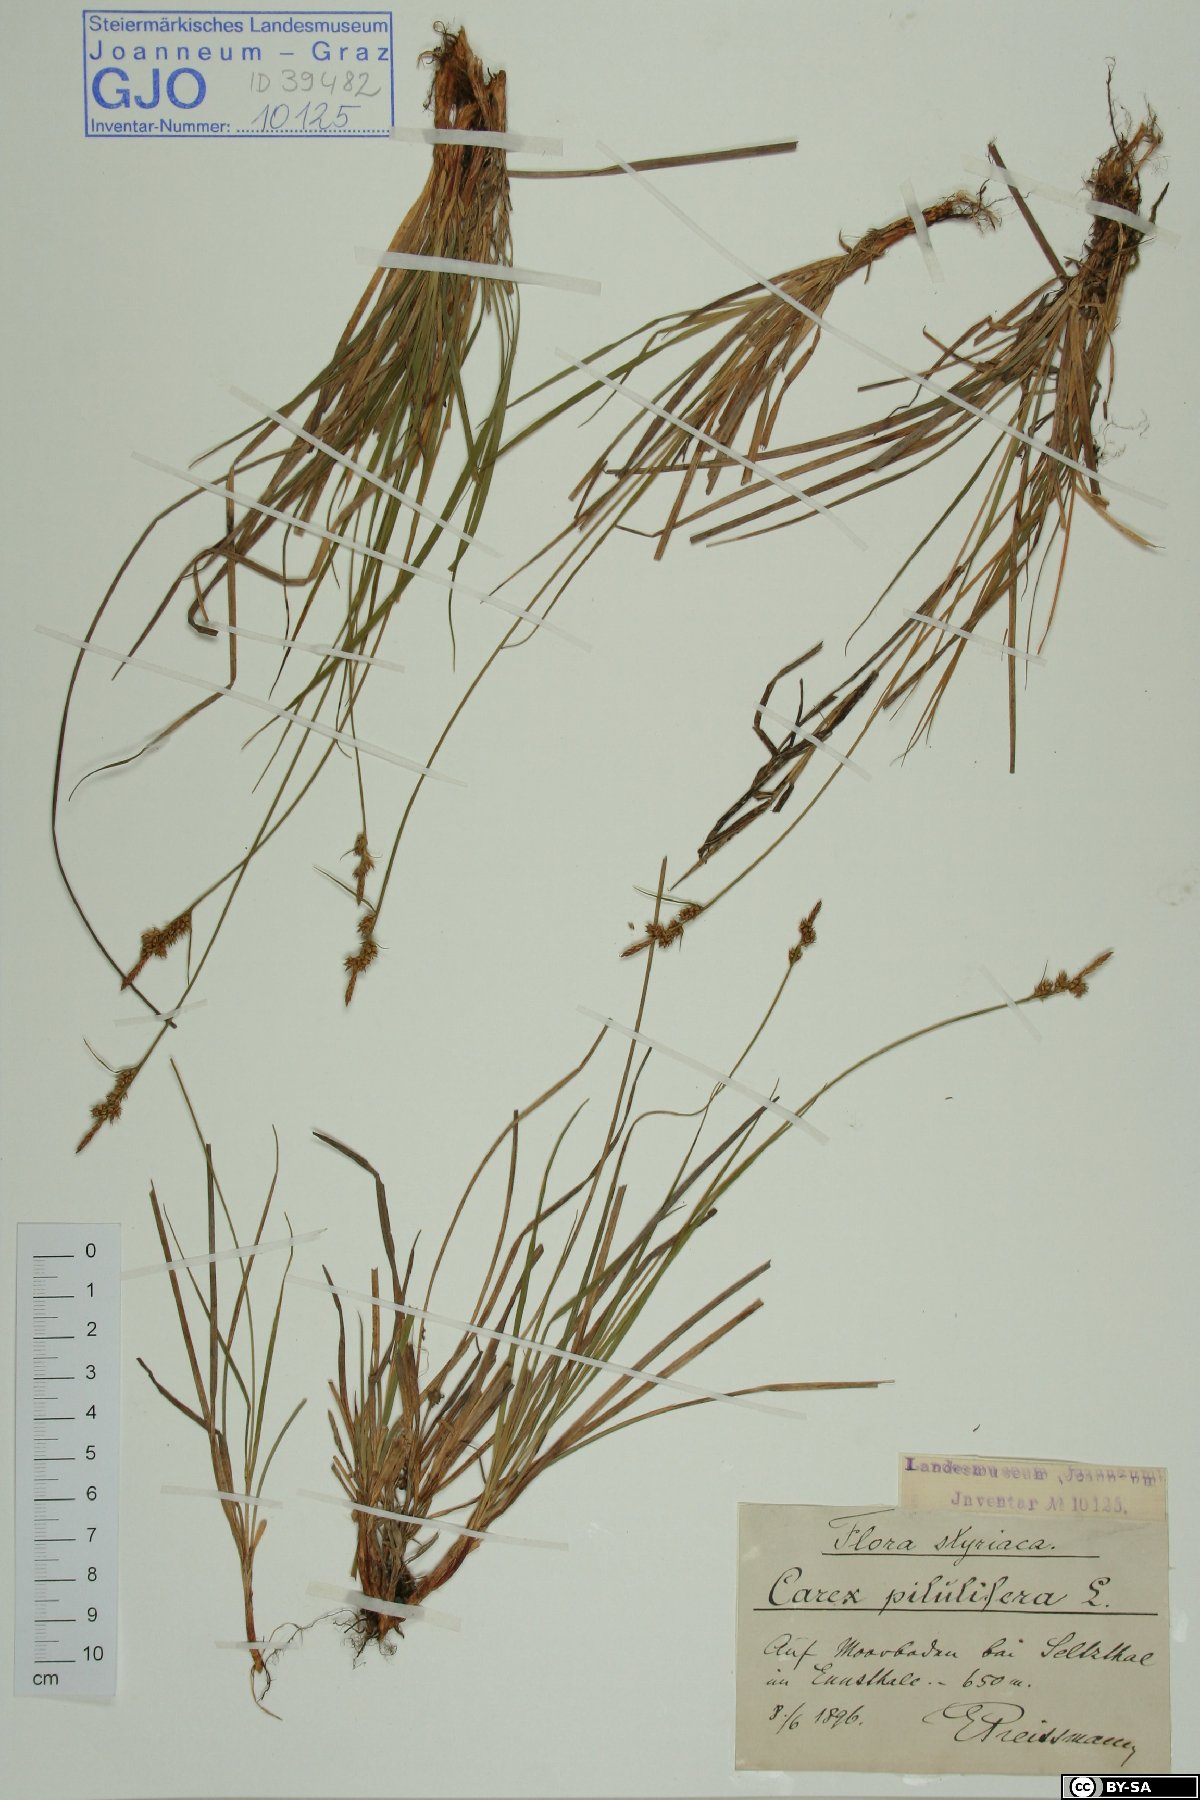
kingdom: Plantae
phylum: Tracheophyta
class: Liliopsida
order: Poales
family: Cyperaceae
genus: Carex
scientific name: Carex pilulifera
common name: Pill sedge
